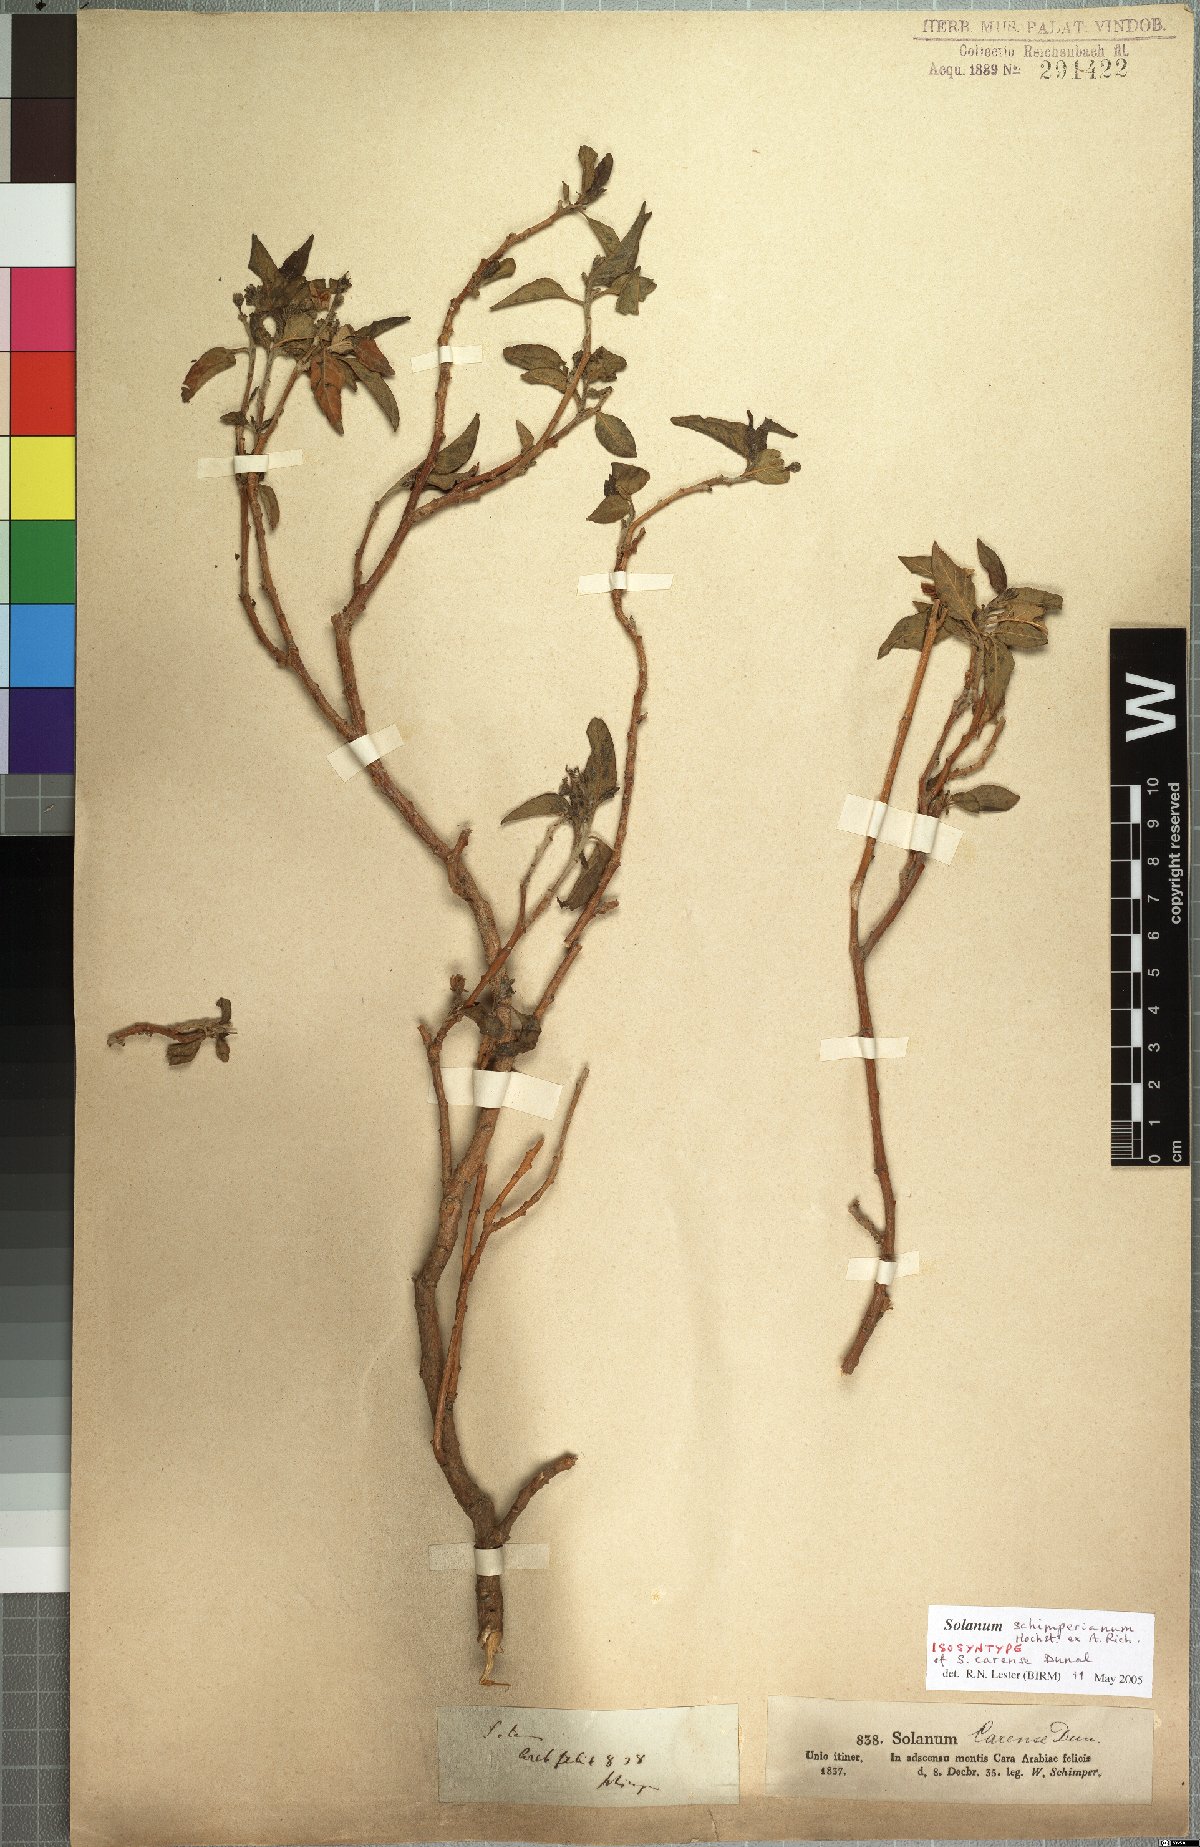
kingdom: Plantae
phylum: Tracheophyta
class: Magnoliopsida
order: Solanales
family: Solanaceae
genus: Solanum
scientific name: Solanum schimperianum
